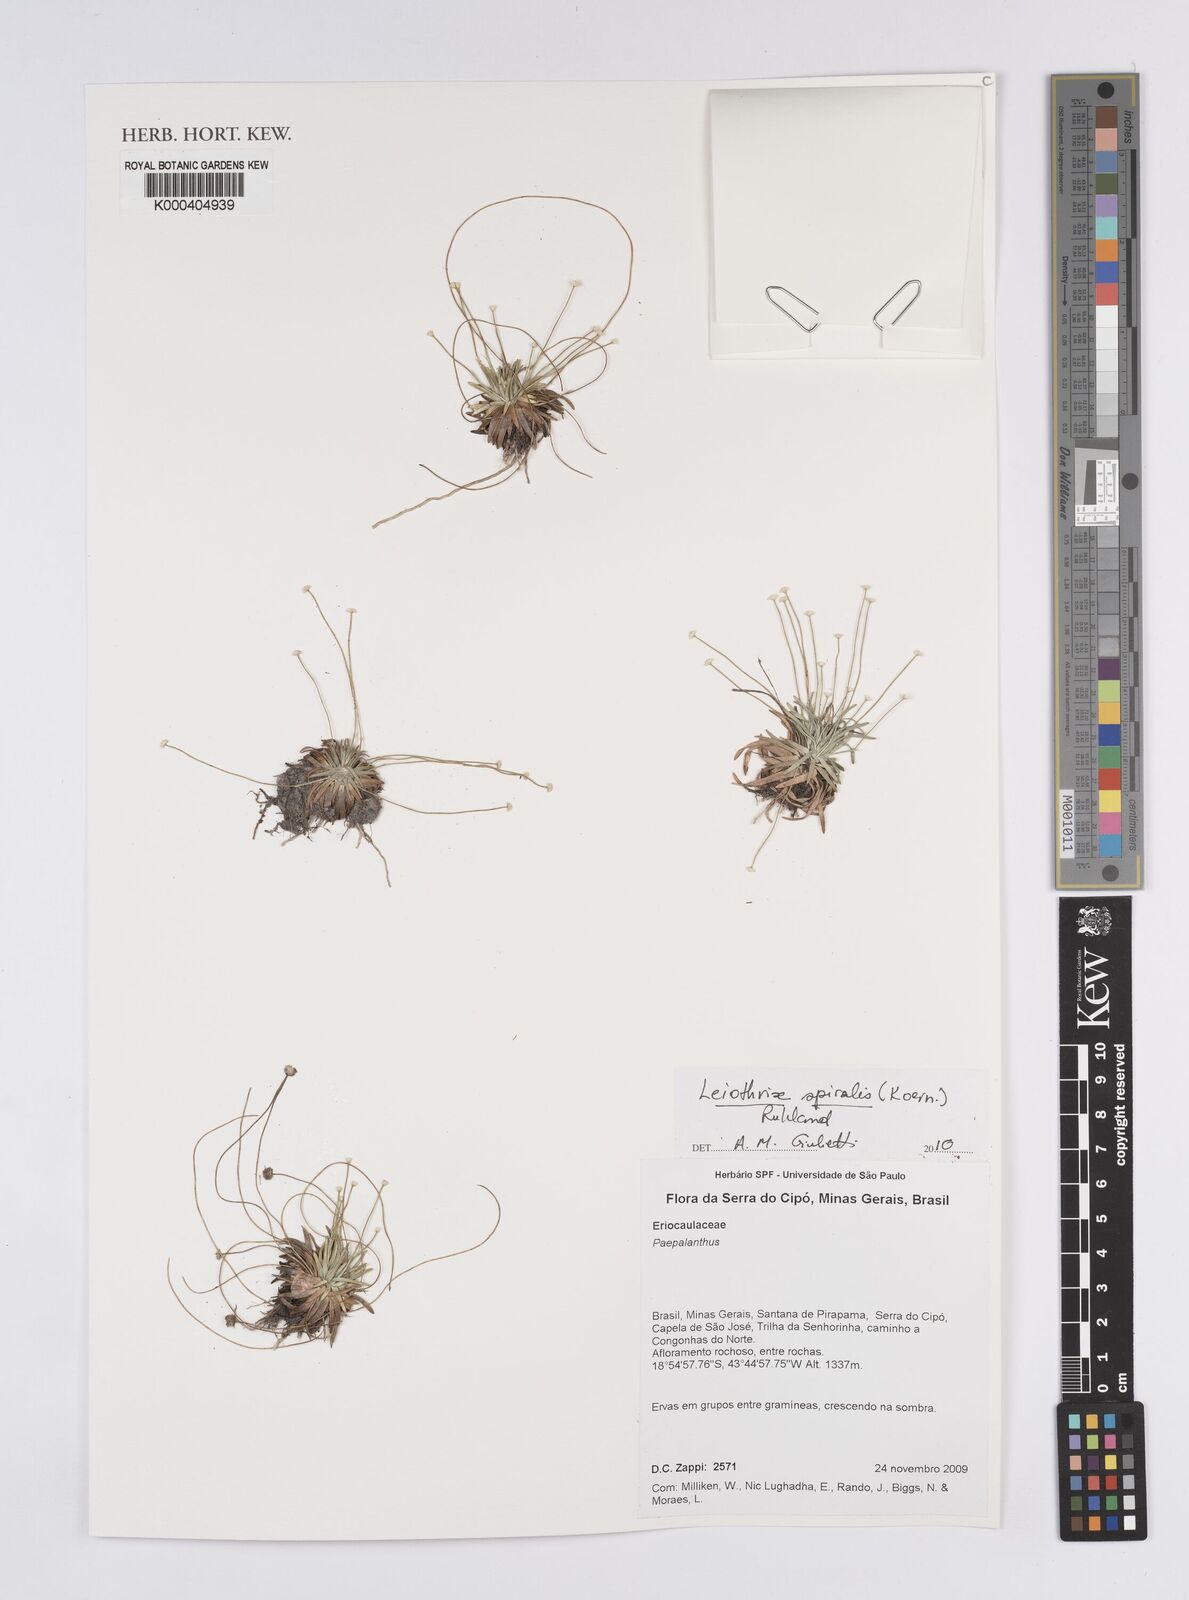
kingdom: Plantae
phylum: Tracheophyta
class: Liliopsida
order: Poales
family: Eriocaulaceae
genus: Leiothrix
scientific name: Leiothrix spiralis
